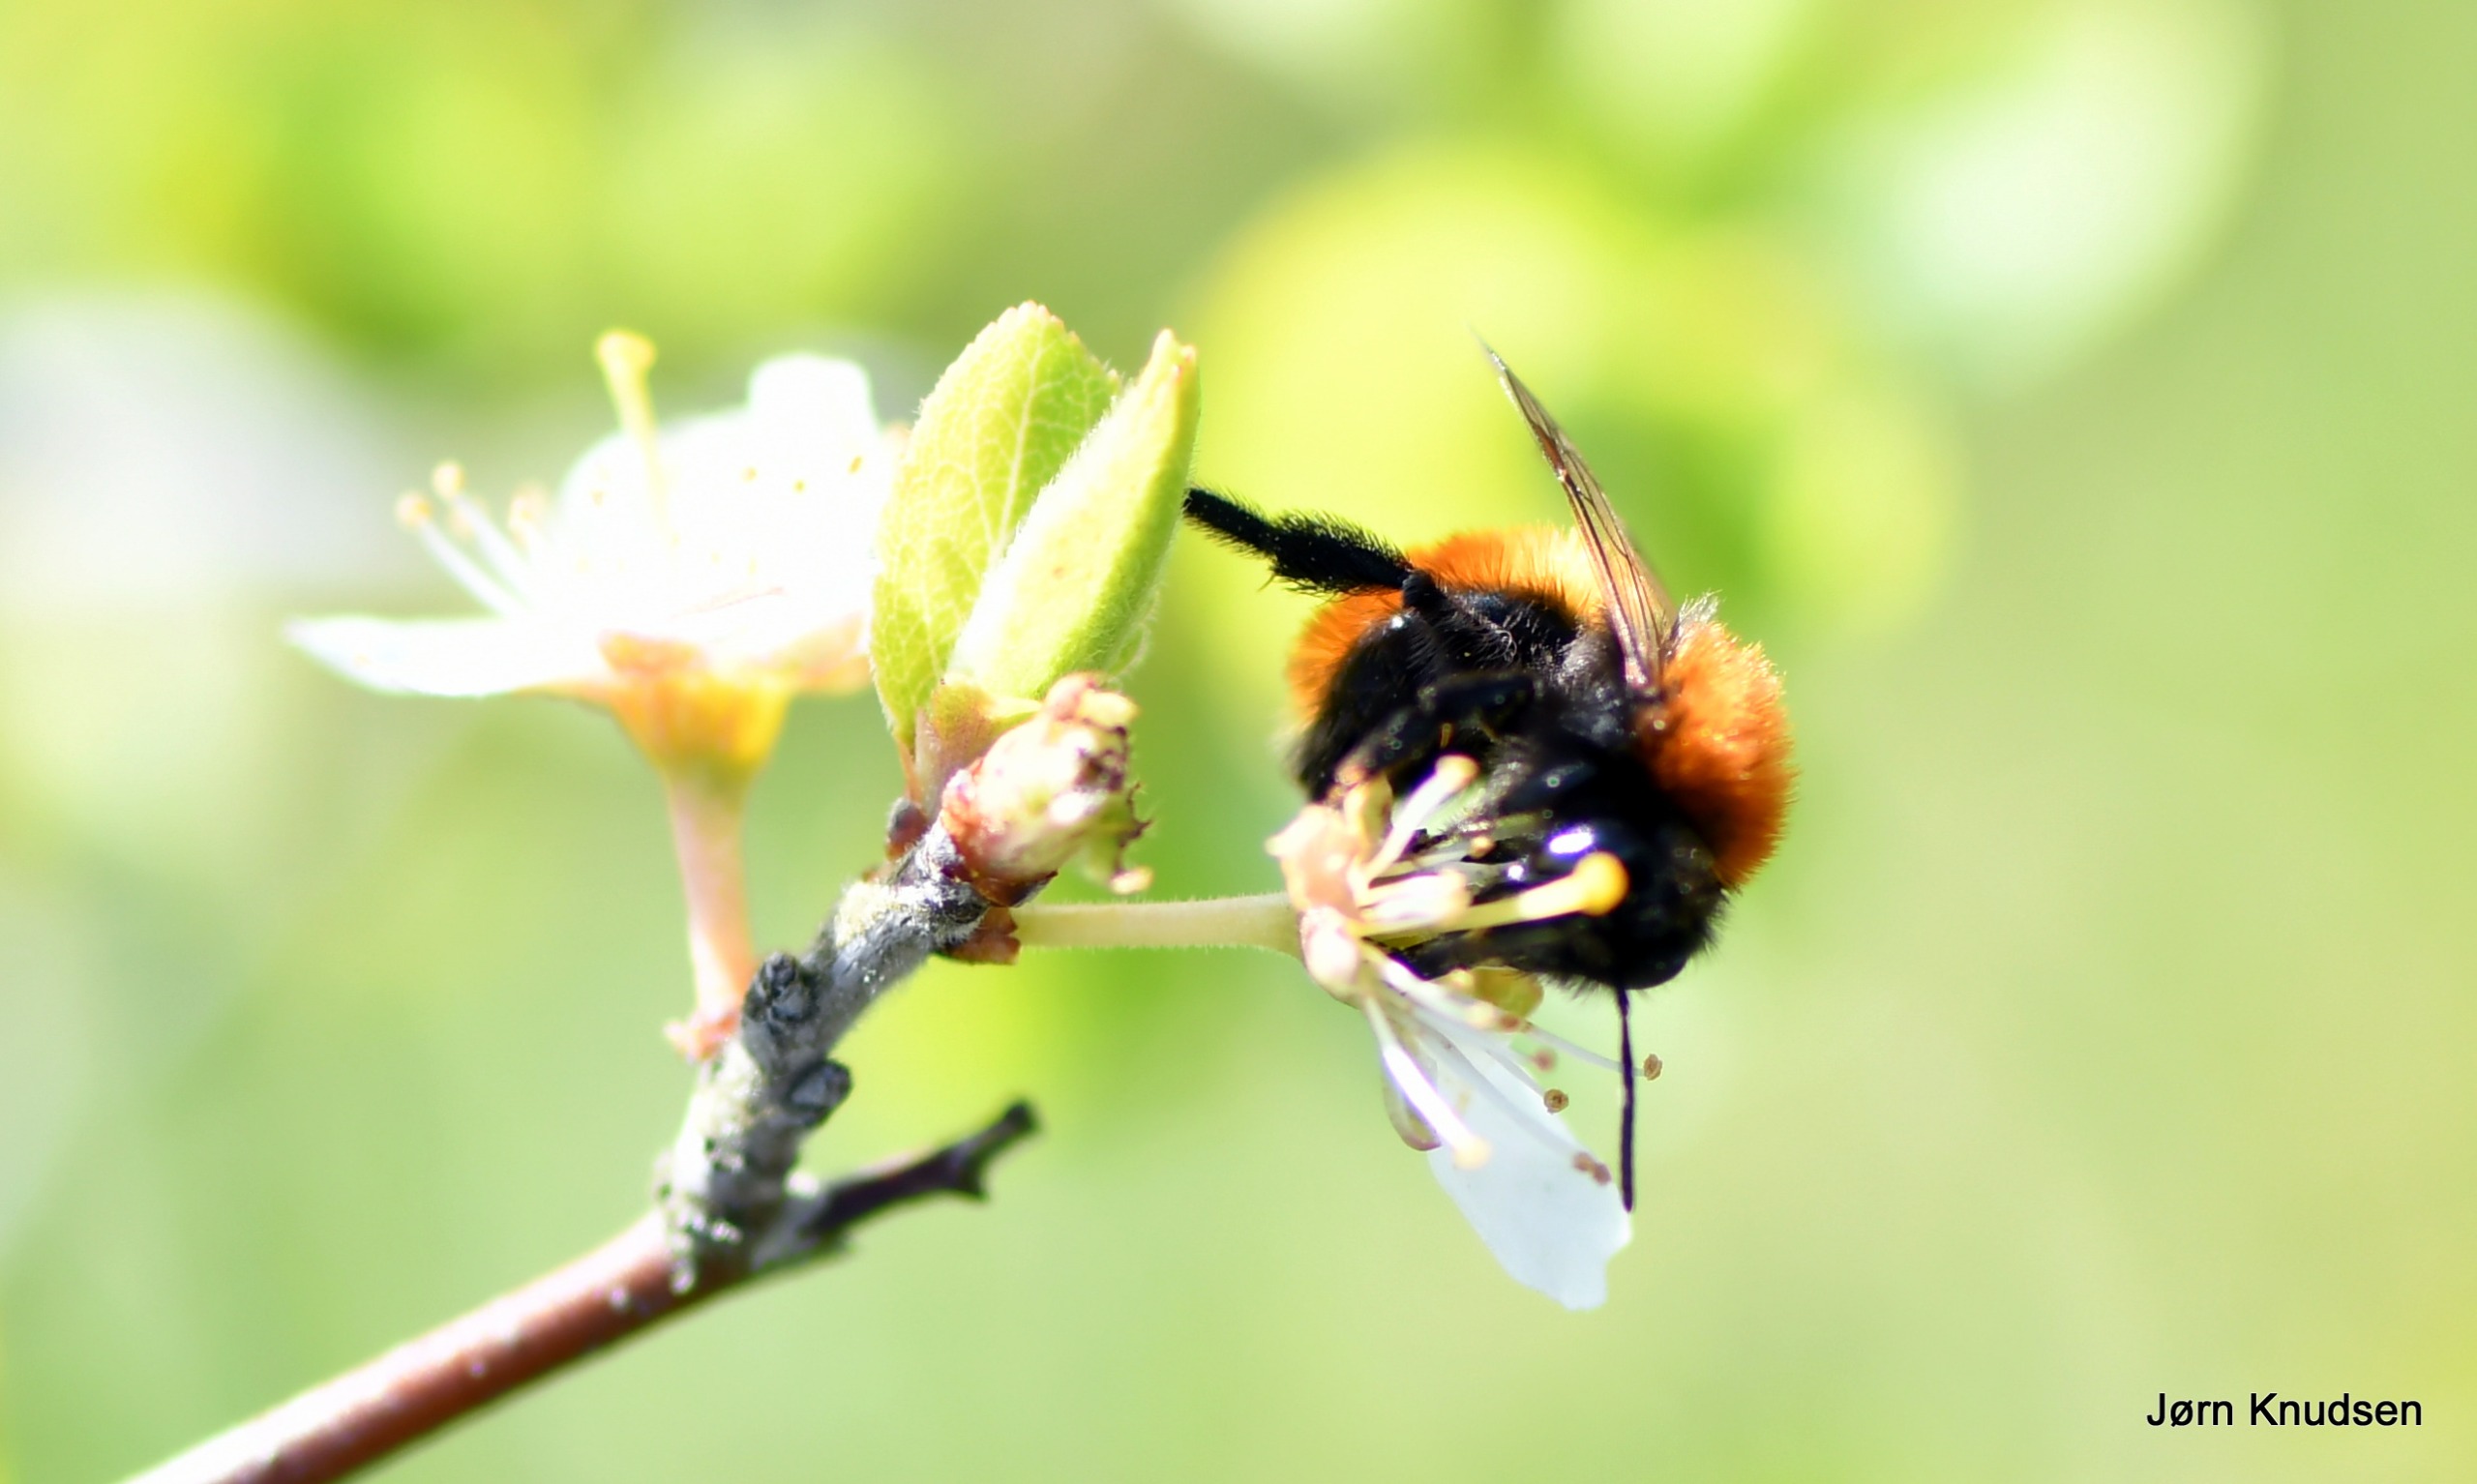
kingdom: Animalia
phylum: Arthropoda
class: Insecta
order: Hymenoptera
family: Andrenidae
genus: Andrena
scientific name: Andrena fulva
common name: Rødpelset jordbi
